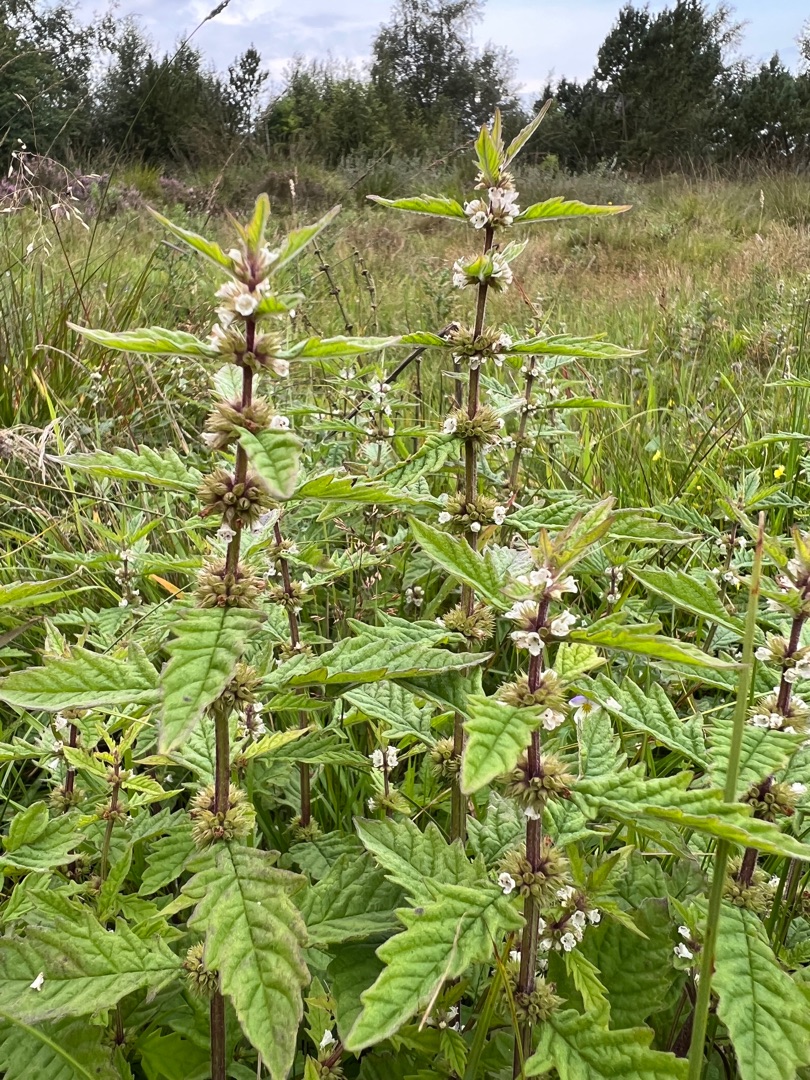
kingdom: Plantae
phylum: Tracheophyta
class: Magnoliopsida
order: Lamiales
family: Lamiaceae
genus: Lycopus
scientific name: Lycopus europaeus
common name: Sværtevæld
